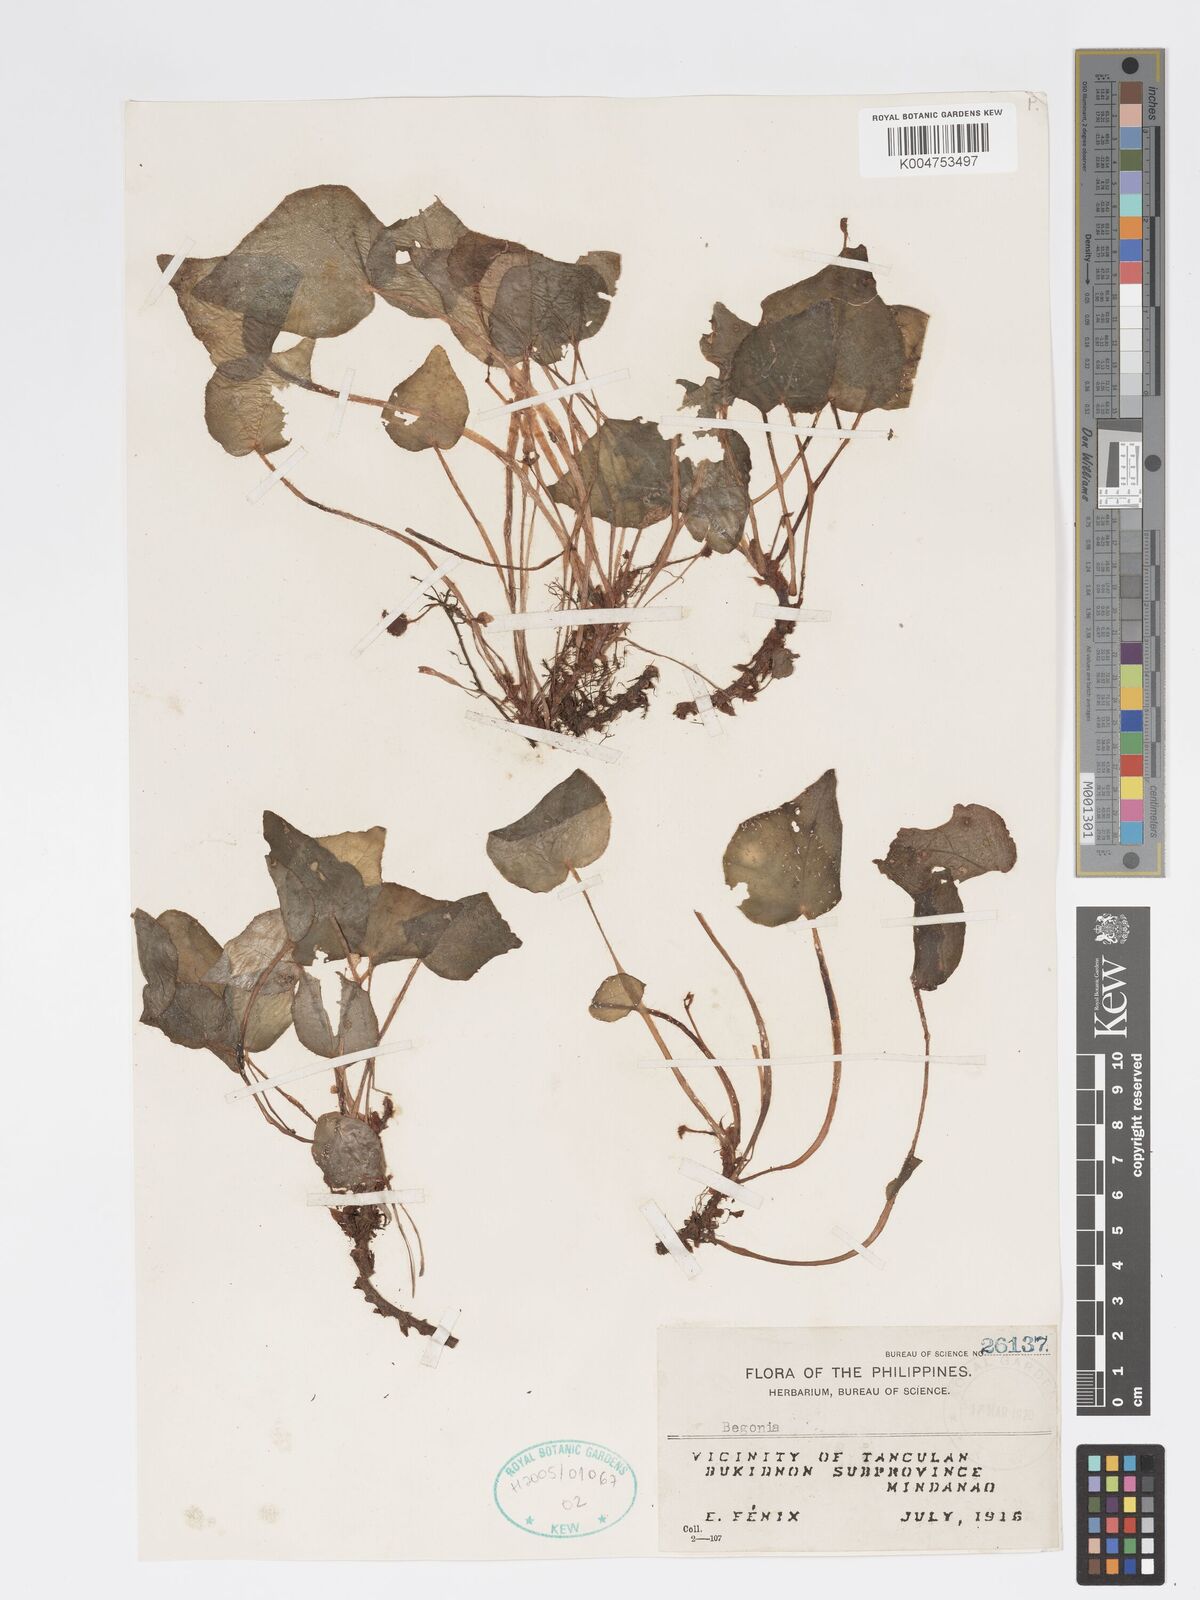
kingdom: Plantae
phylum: Tracheophyta
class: Magnoliopsida
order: Cucurbitales
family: Begoniaceae
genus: Begonia
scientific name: Begonia
